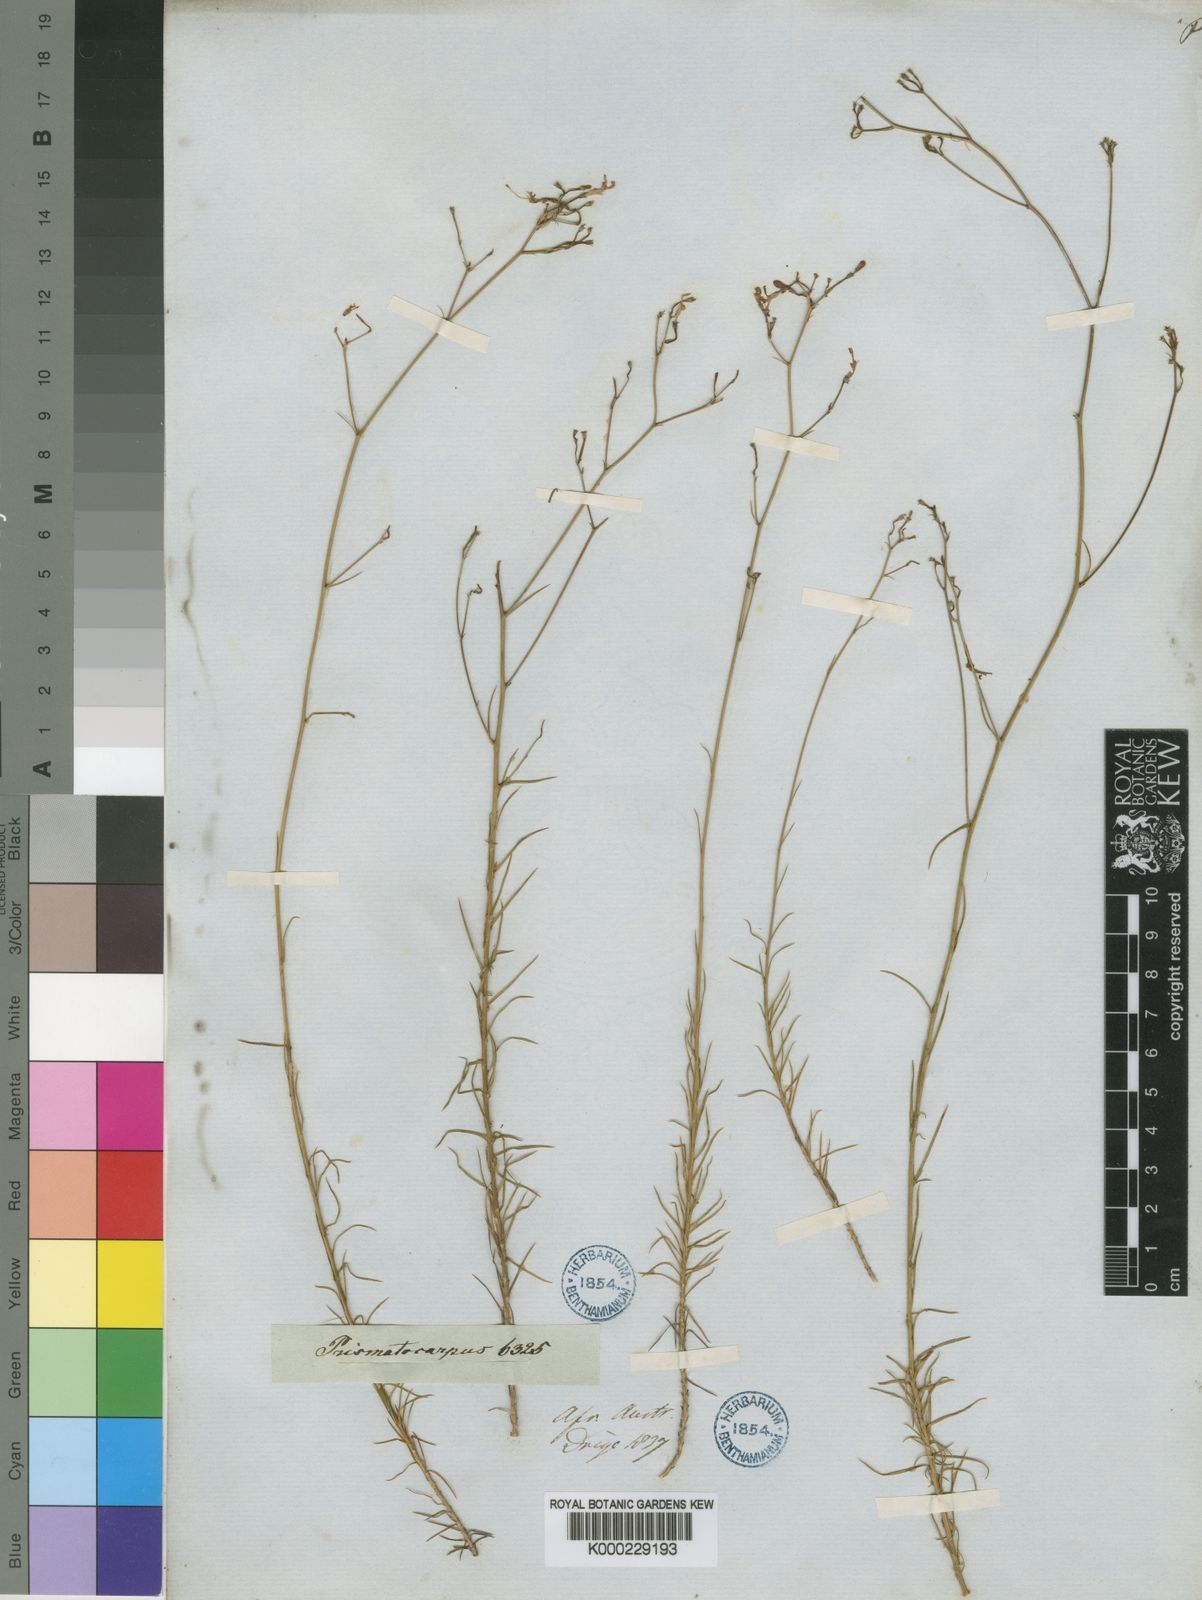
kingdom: Plantae
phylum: Tracheophyta
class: Magnoliopsida
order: Asterales
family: Campanulaceae
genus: Prismatocarpus
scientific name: Prismatocarpus diffusus
